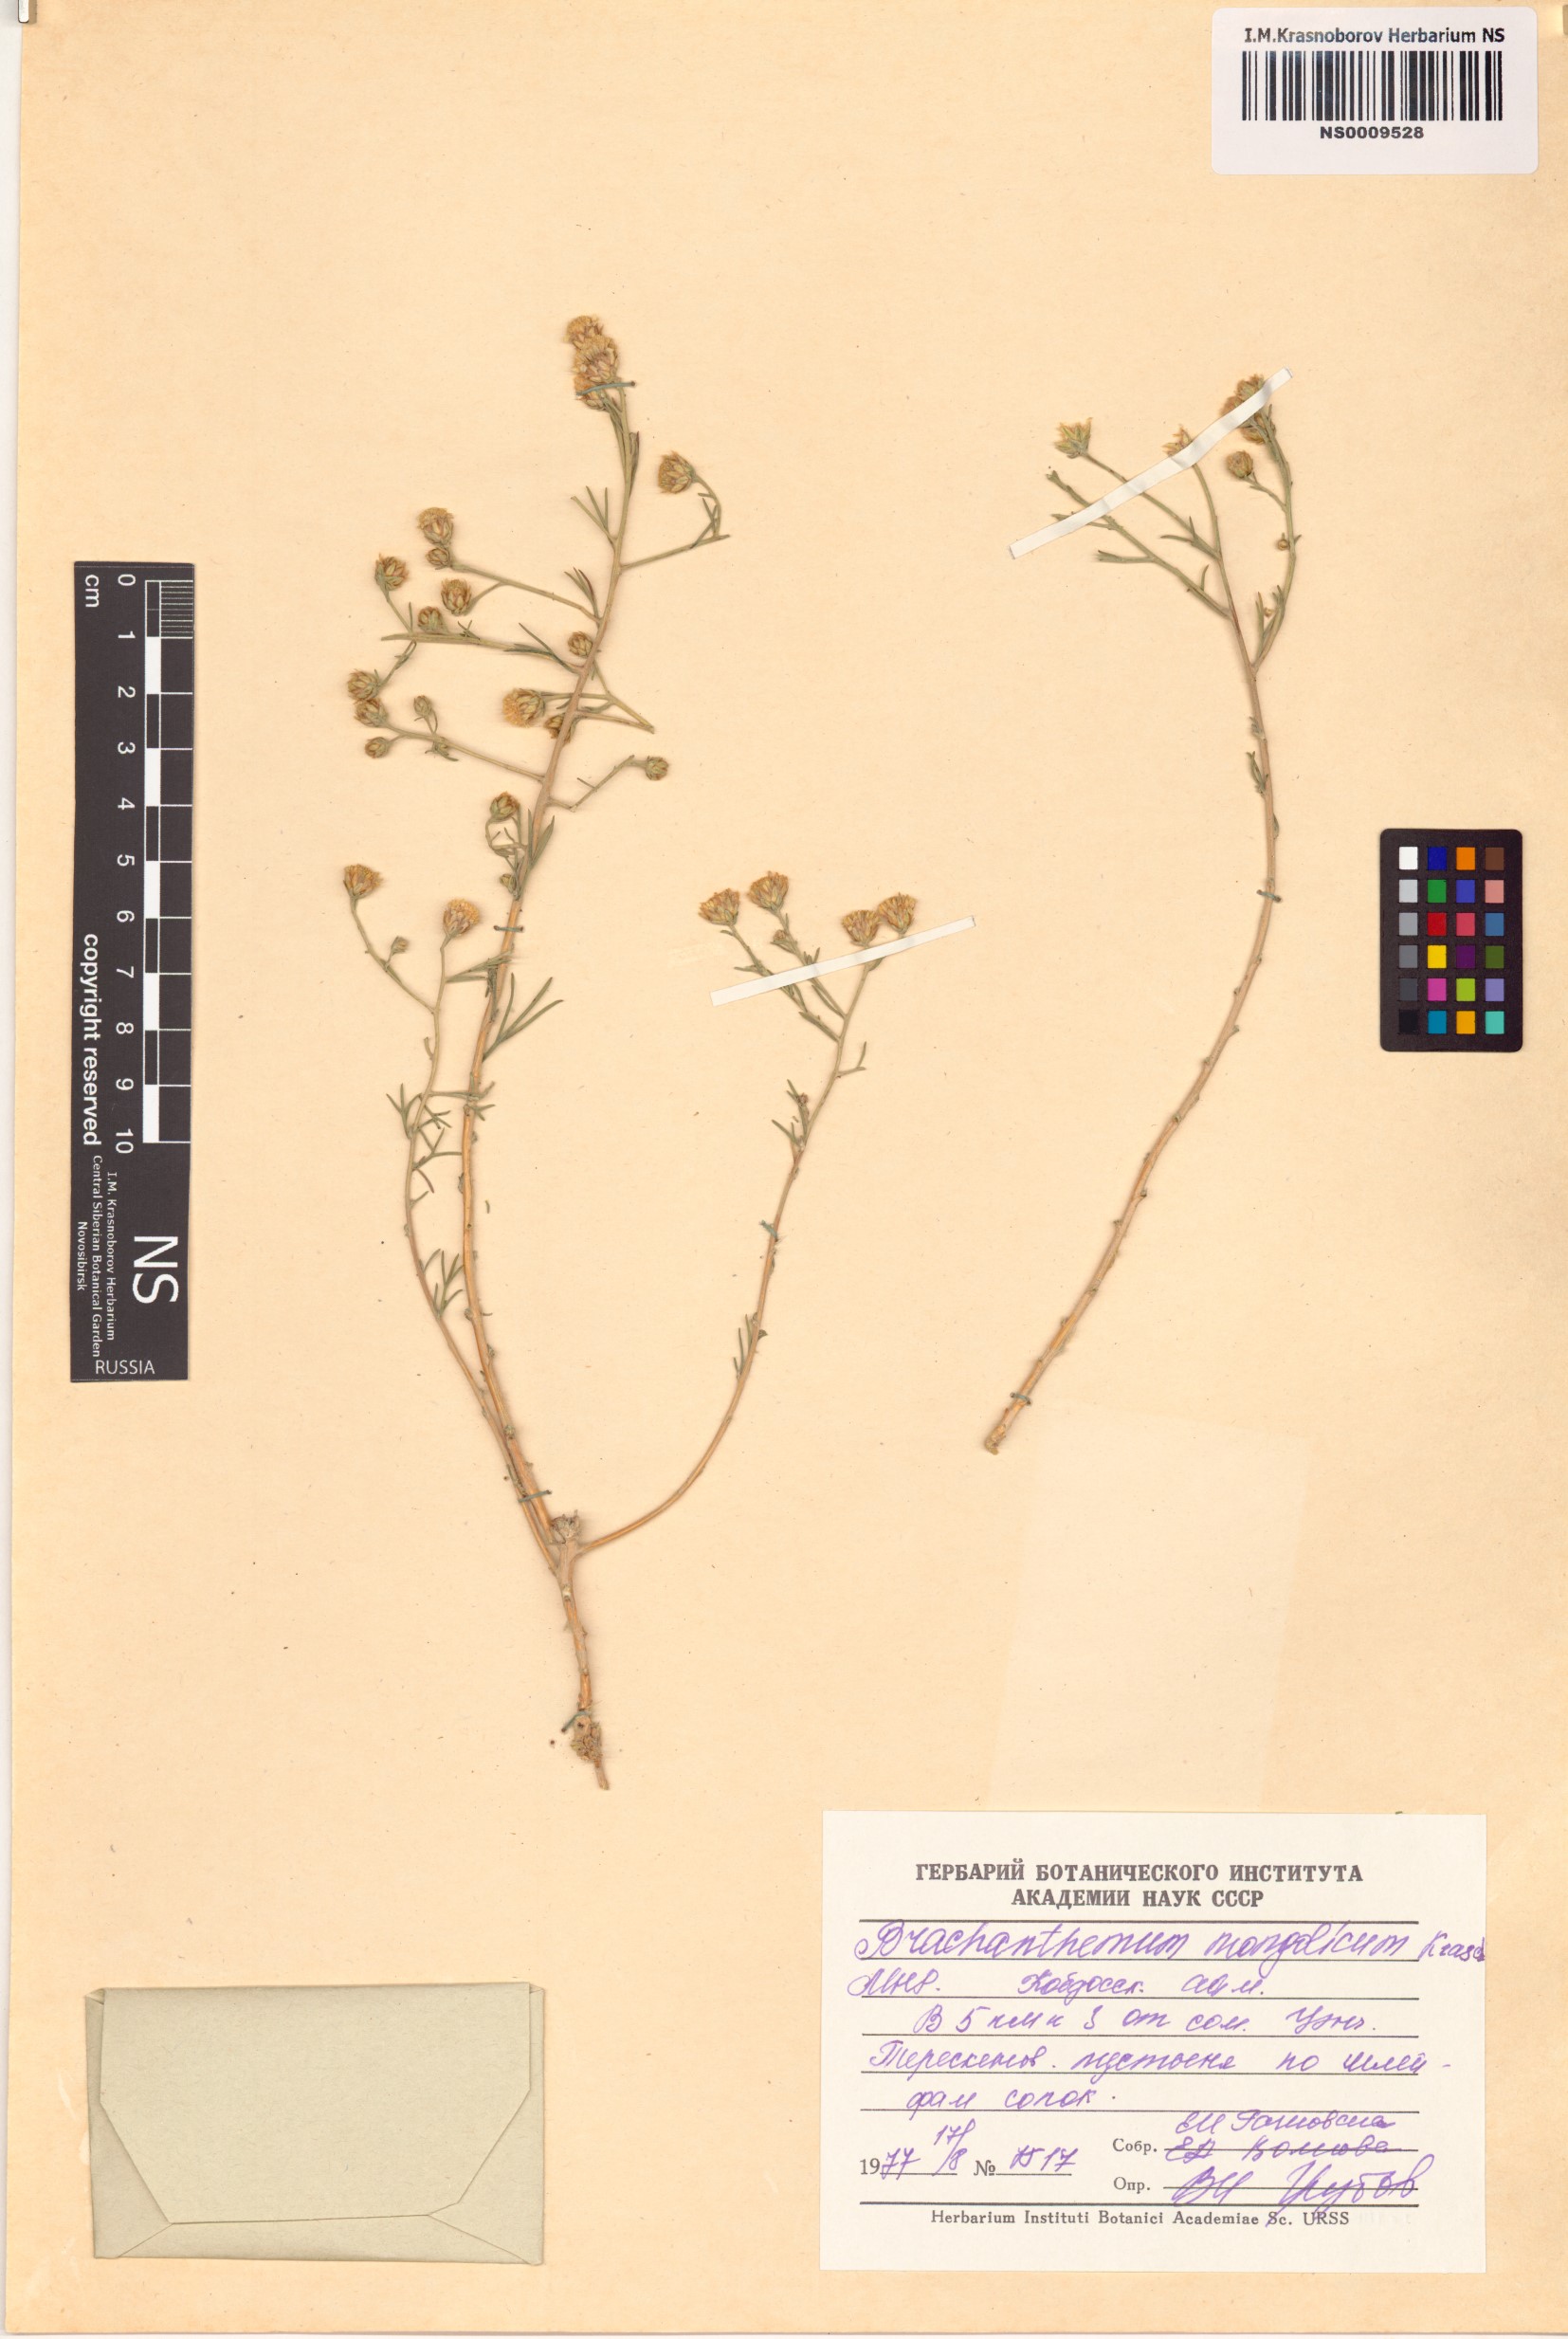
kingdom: Plantae
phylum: Tracheophyta
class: Magnoliopsida
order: Asterales
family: Asteraceae
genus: Brachanthemum
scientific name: Brachanthemum mongolicum
